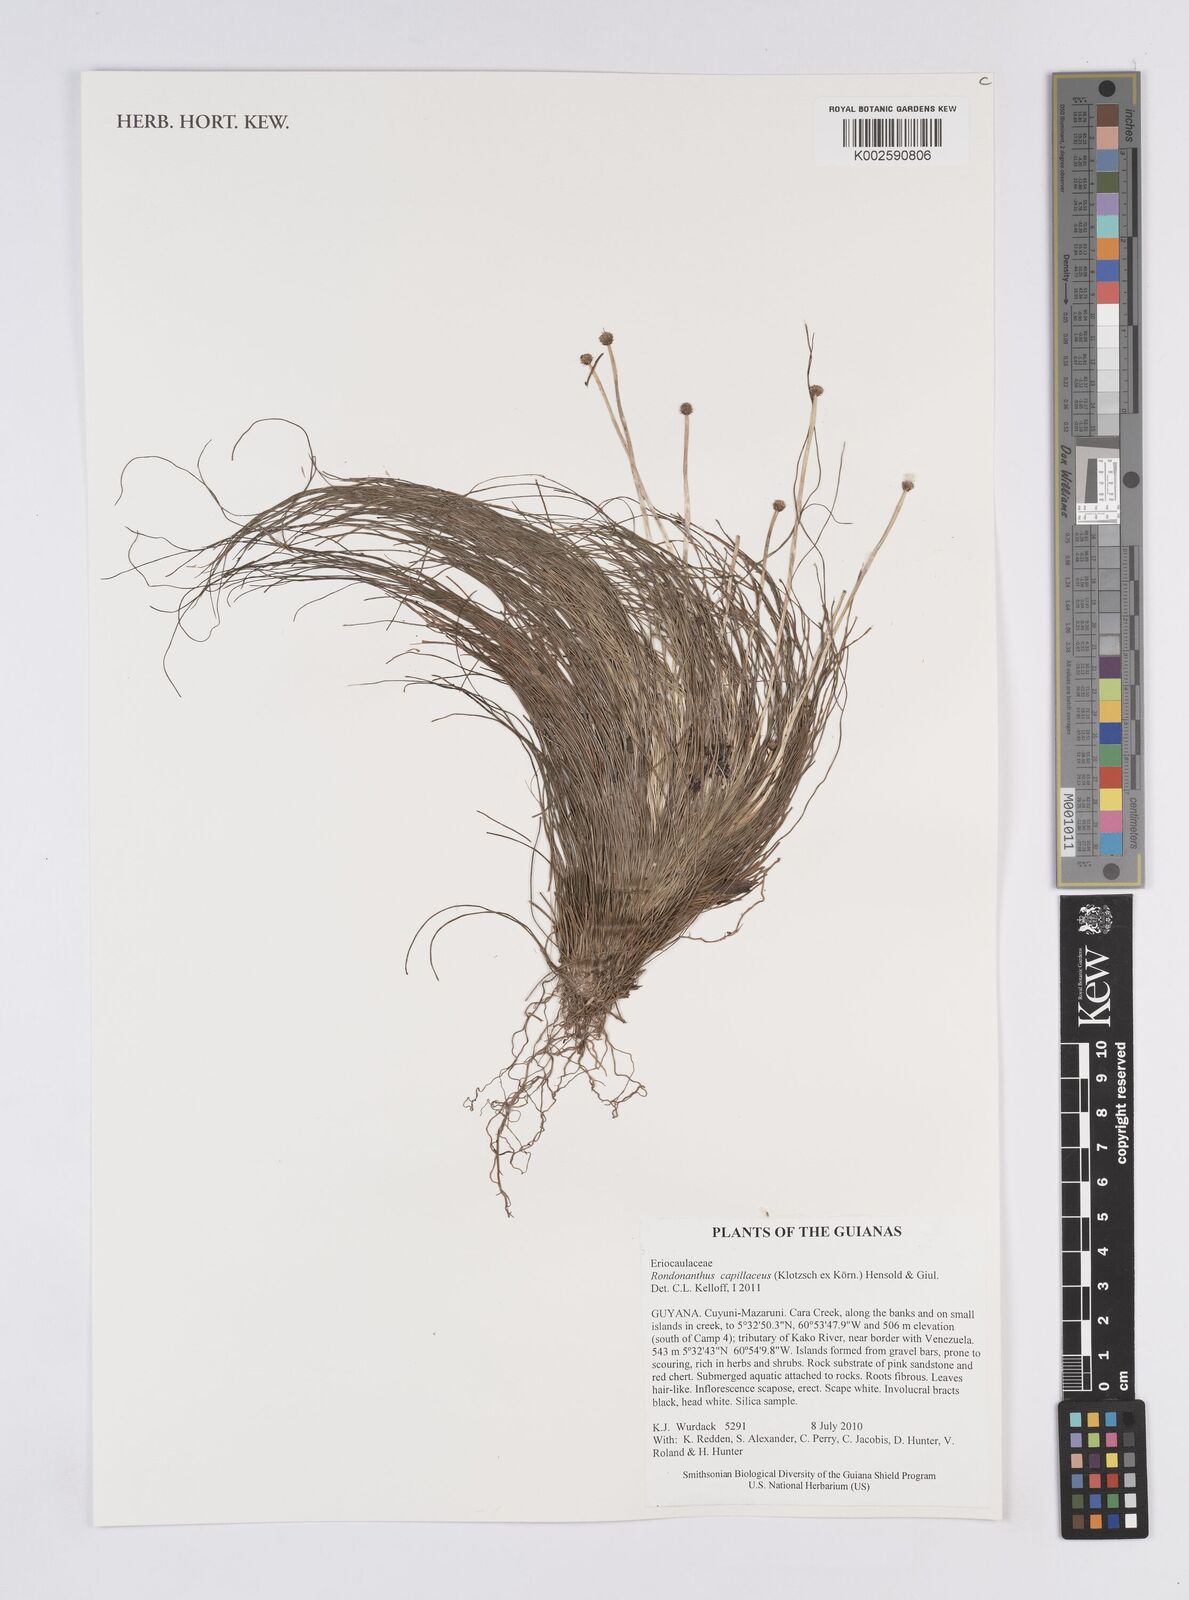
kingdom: Plantae
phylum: Tracheophyta
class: Liliopsida
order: Poales
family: Eriocaulaceae
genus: Rondonanthus
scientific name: Rondonanthus capillaceus
